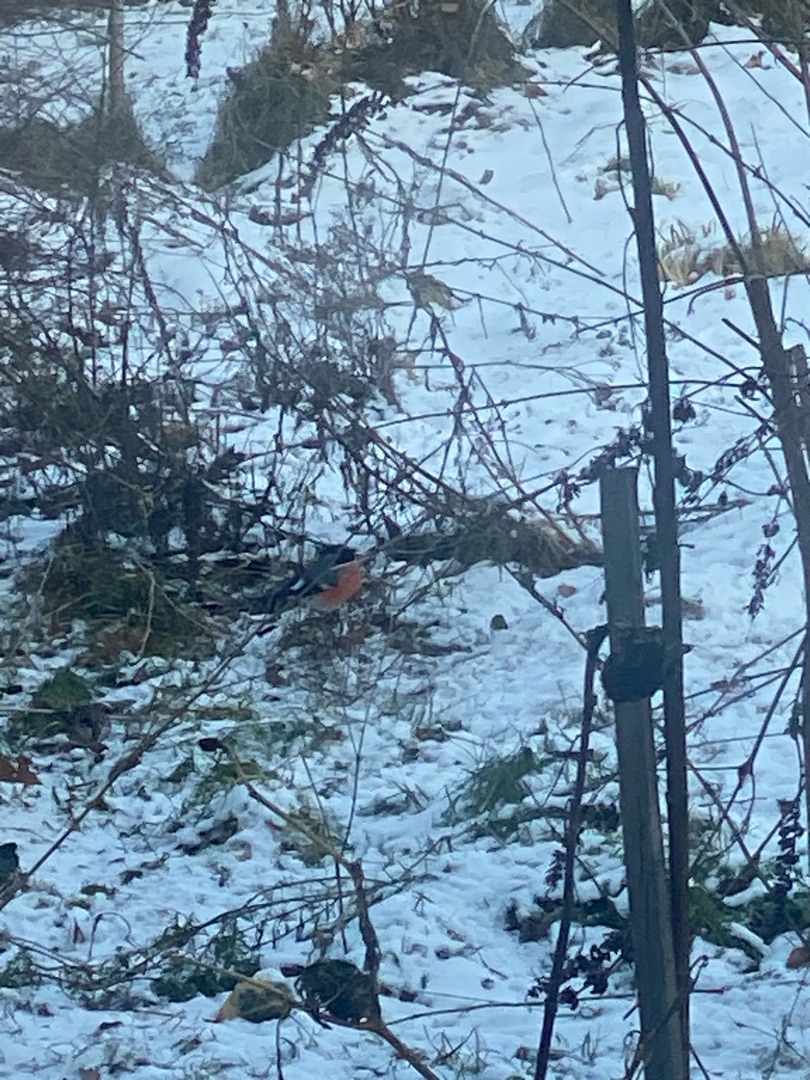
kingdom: Animalia
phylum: Chordata
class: Aves
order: Passeriformes
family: Fringillidae
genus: Pyrrhula
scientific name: Pyrrhula pyrrhula
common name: Dompap
